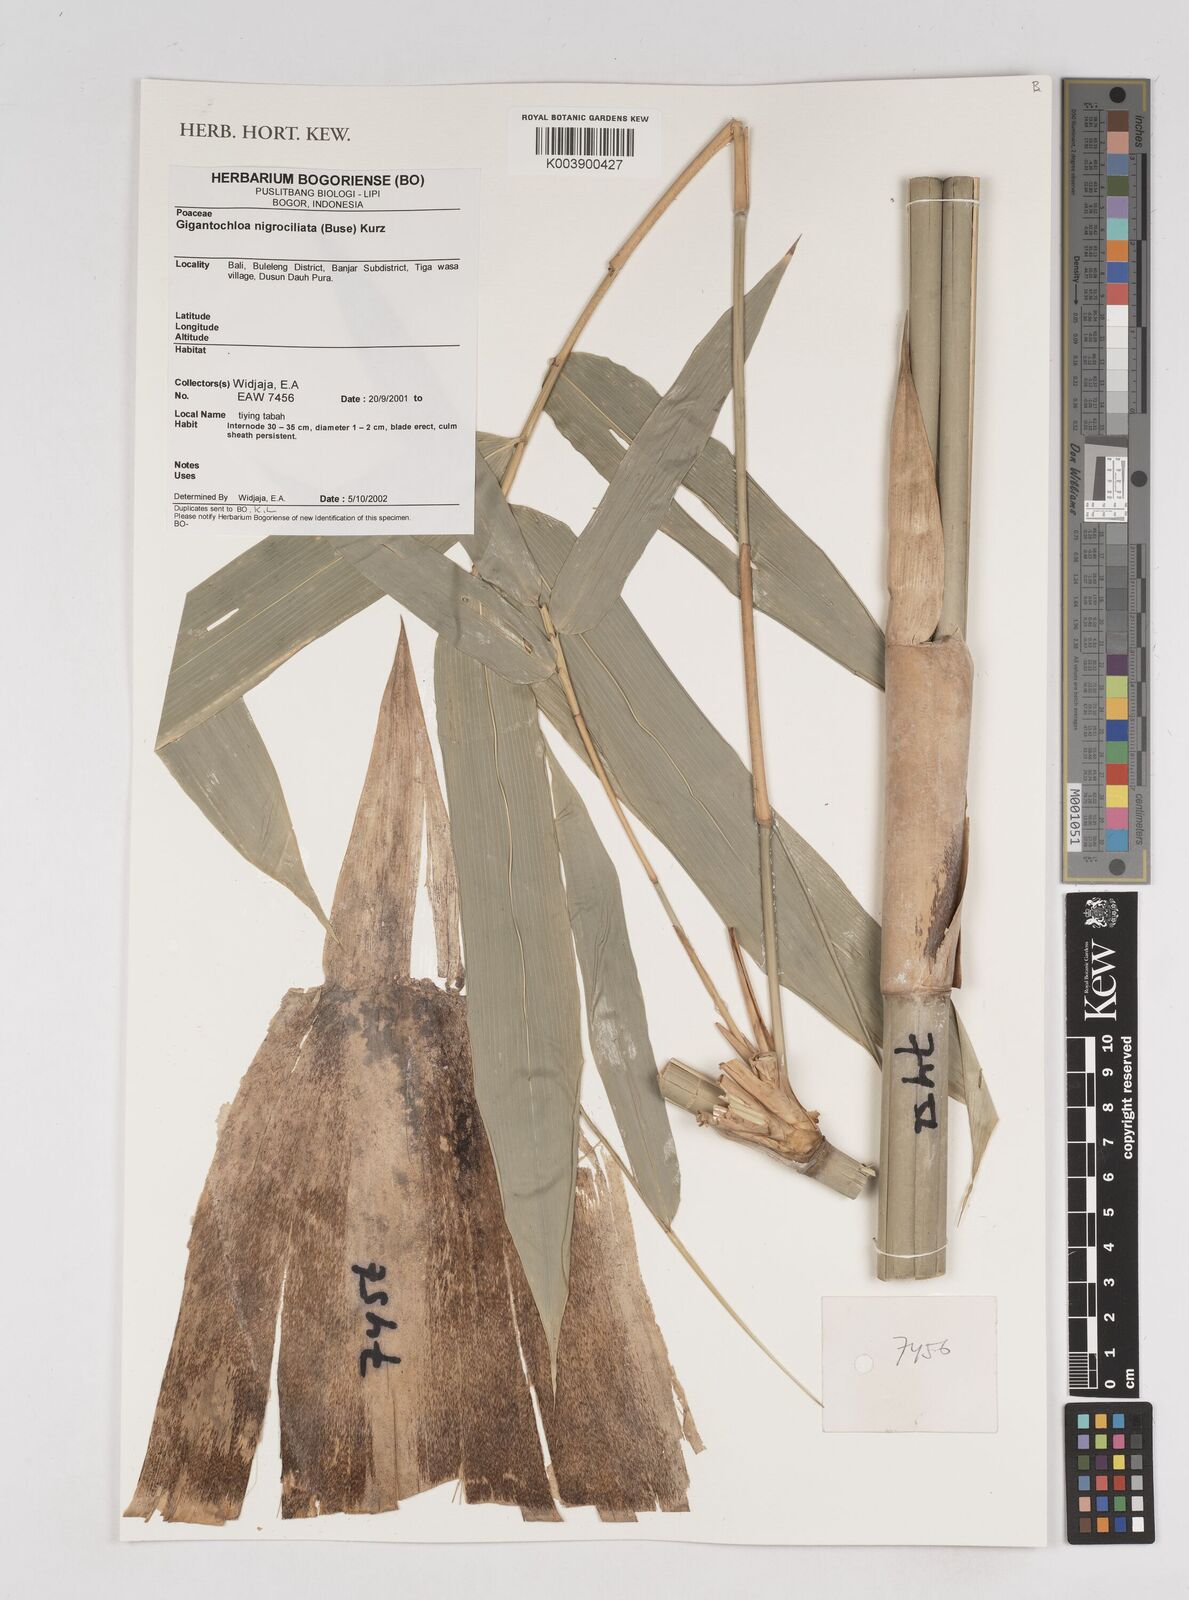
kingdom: Plantae
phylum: Tracheophyta
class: Liliopsida
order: Poales
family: Poaceae
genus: Gigantochloa
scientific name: Gigantochloa nigrociliata
